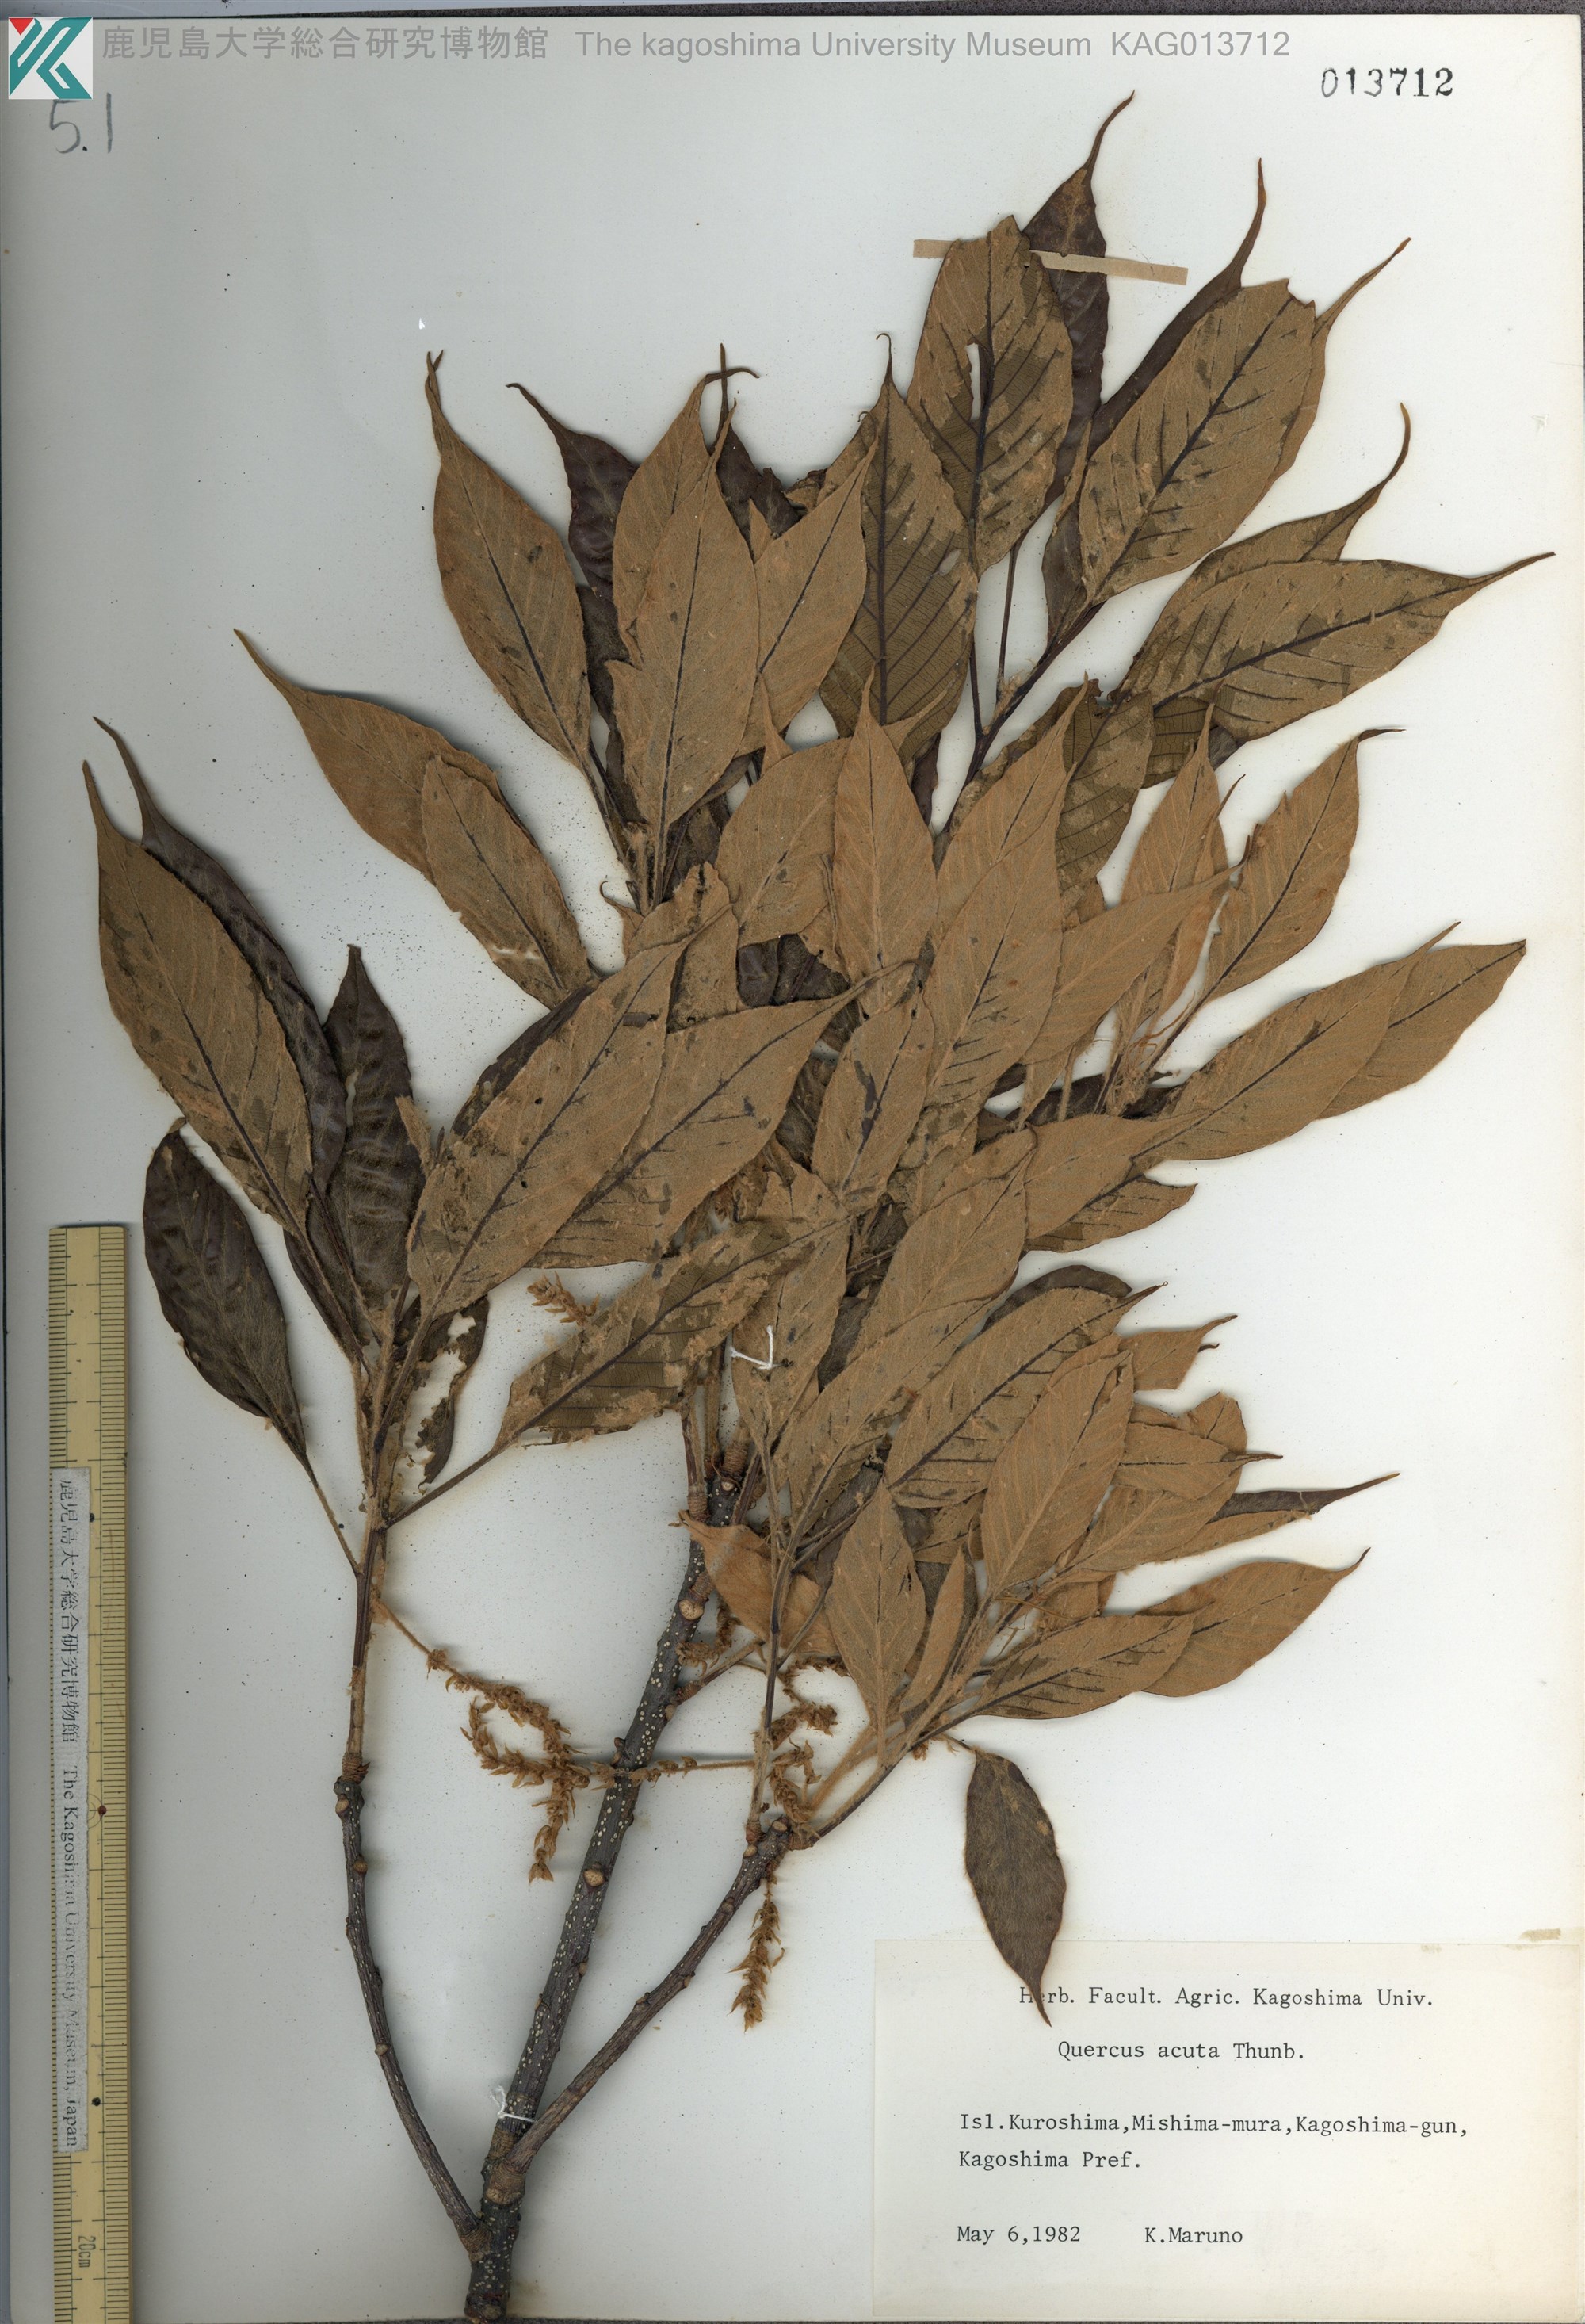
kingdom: Plantae
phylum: Tracheophyta
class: Magnoliopsida
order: Fagales
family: Fagaceae
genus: Quercus
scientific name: Quercus acuta
